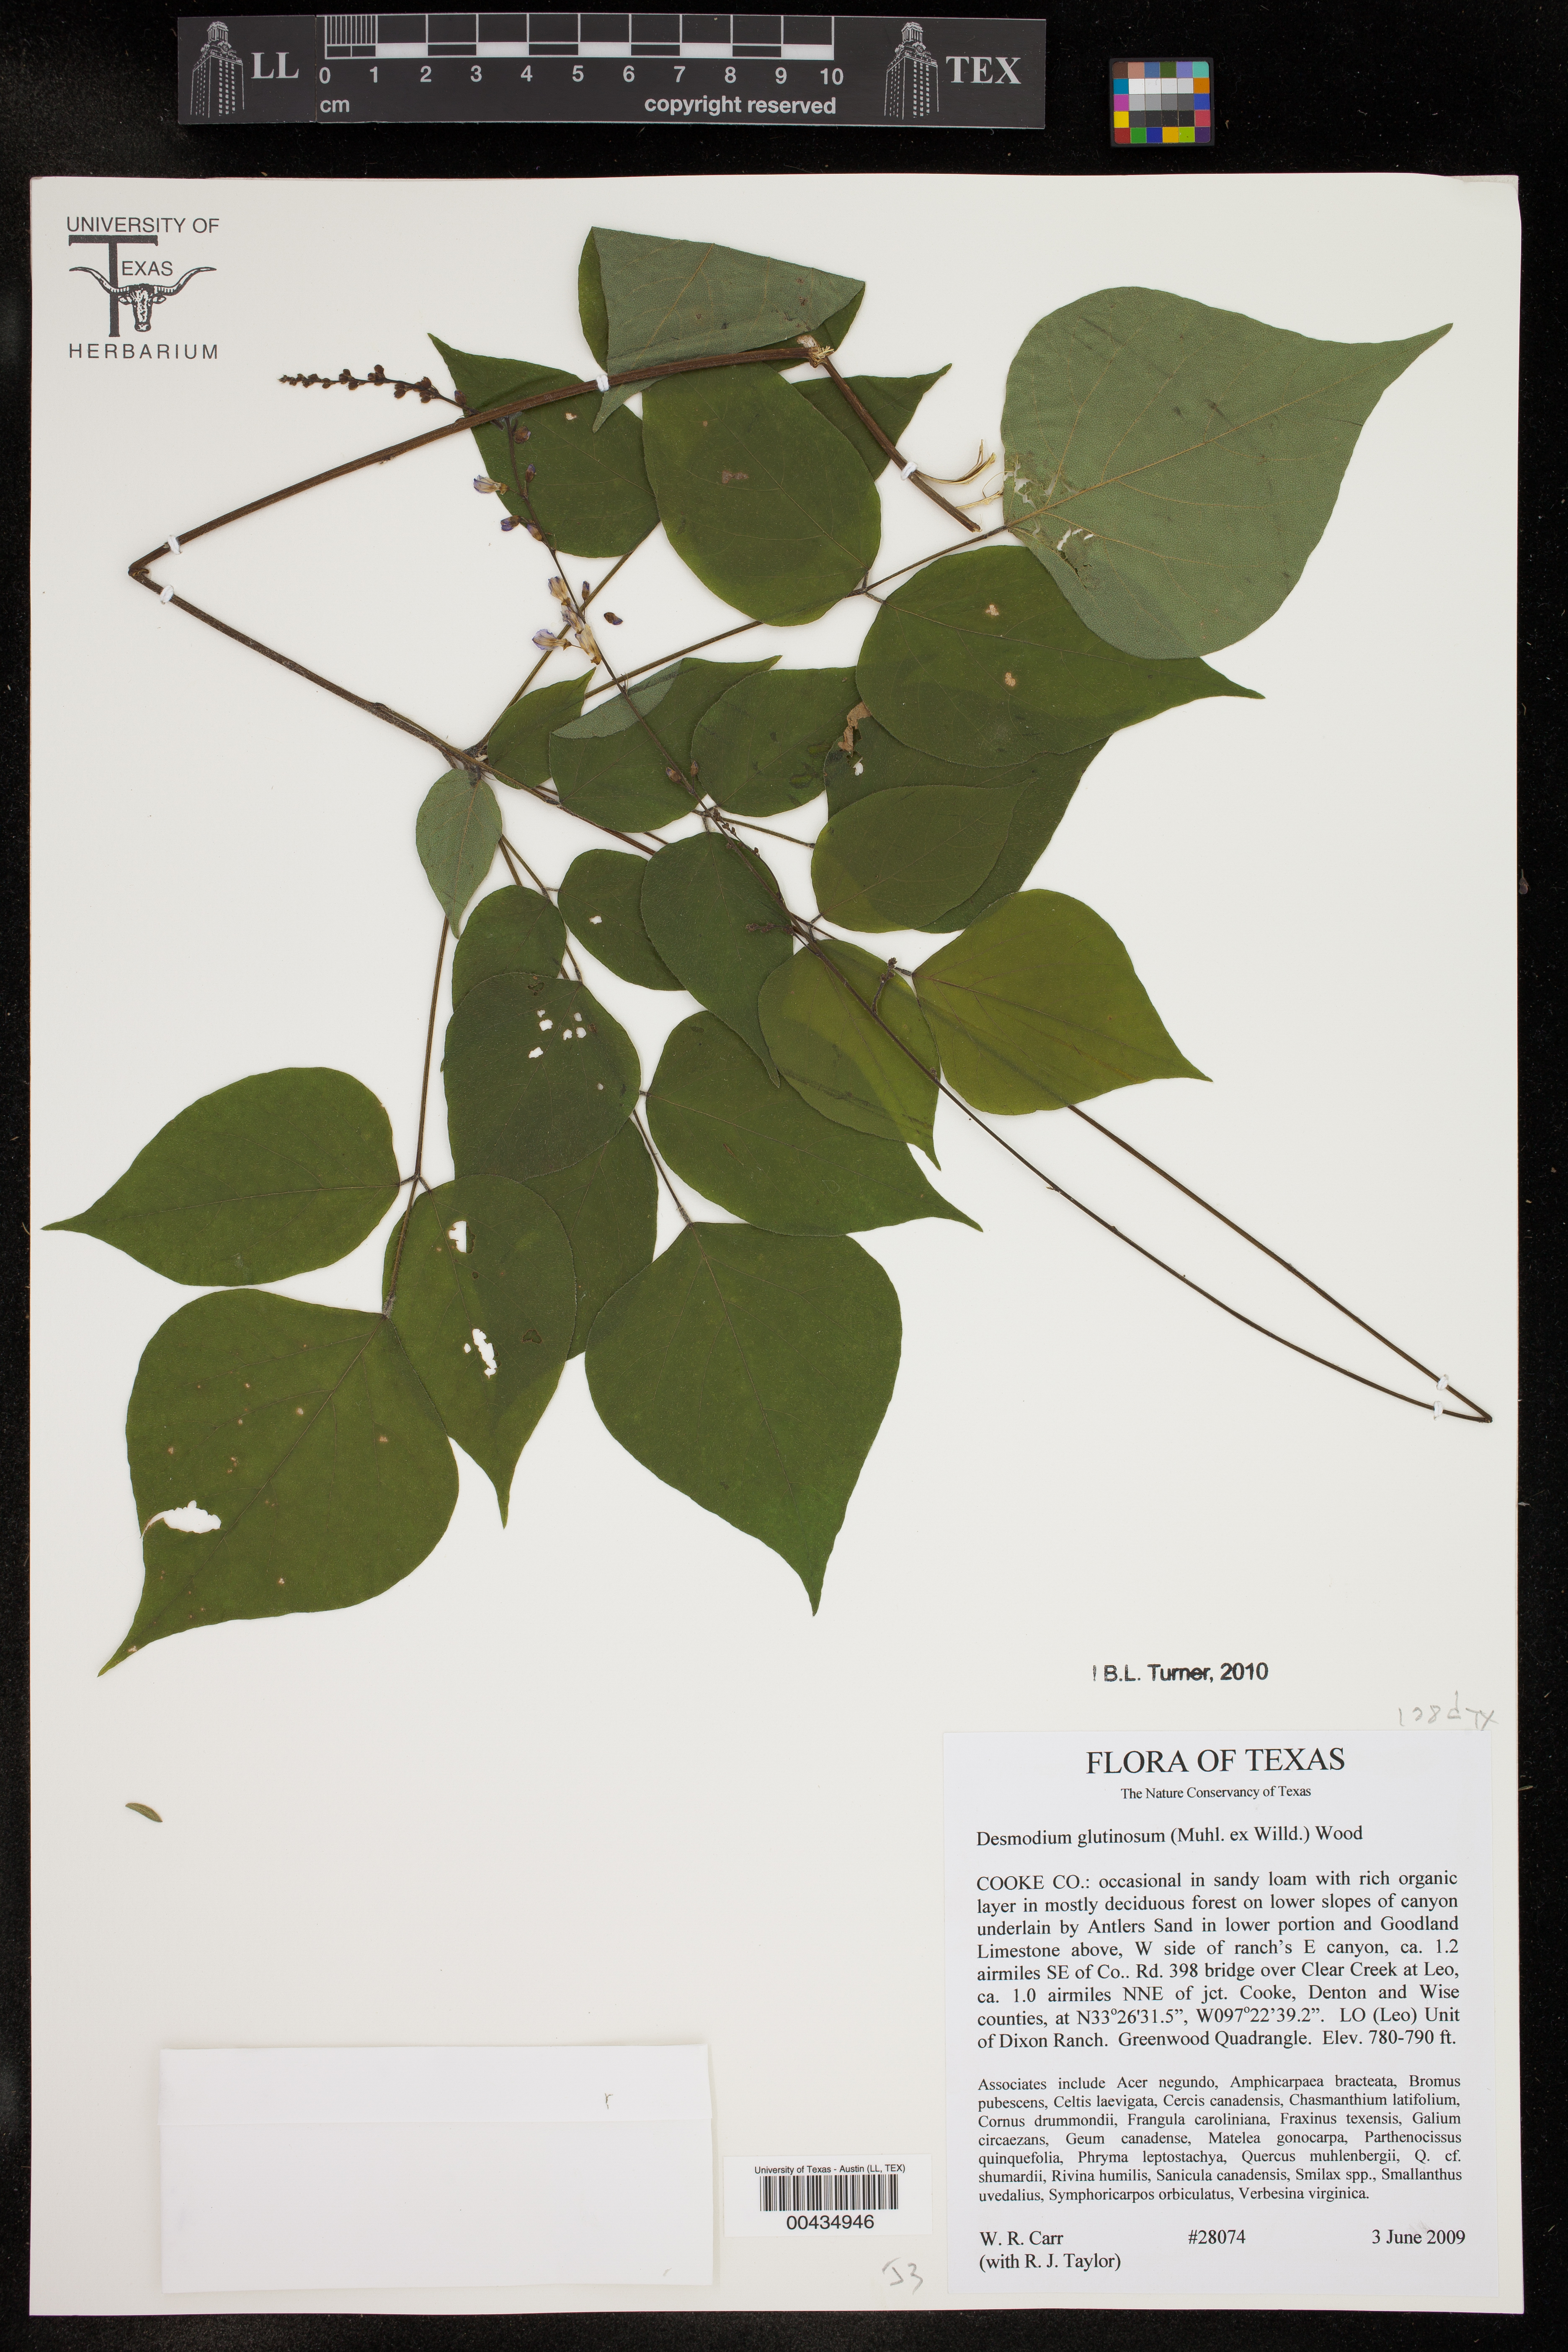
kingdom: Plantae
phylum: Tracheophyta
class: Magnoliopsida
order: Fabales
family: Fabaceae
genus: Hylodesmum
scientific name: Hylodesmum glutinosum
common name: Clustered-leaved tick-trefoil
